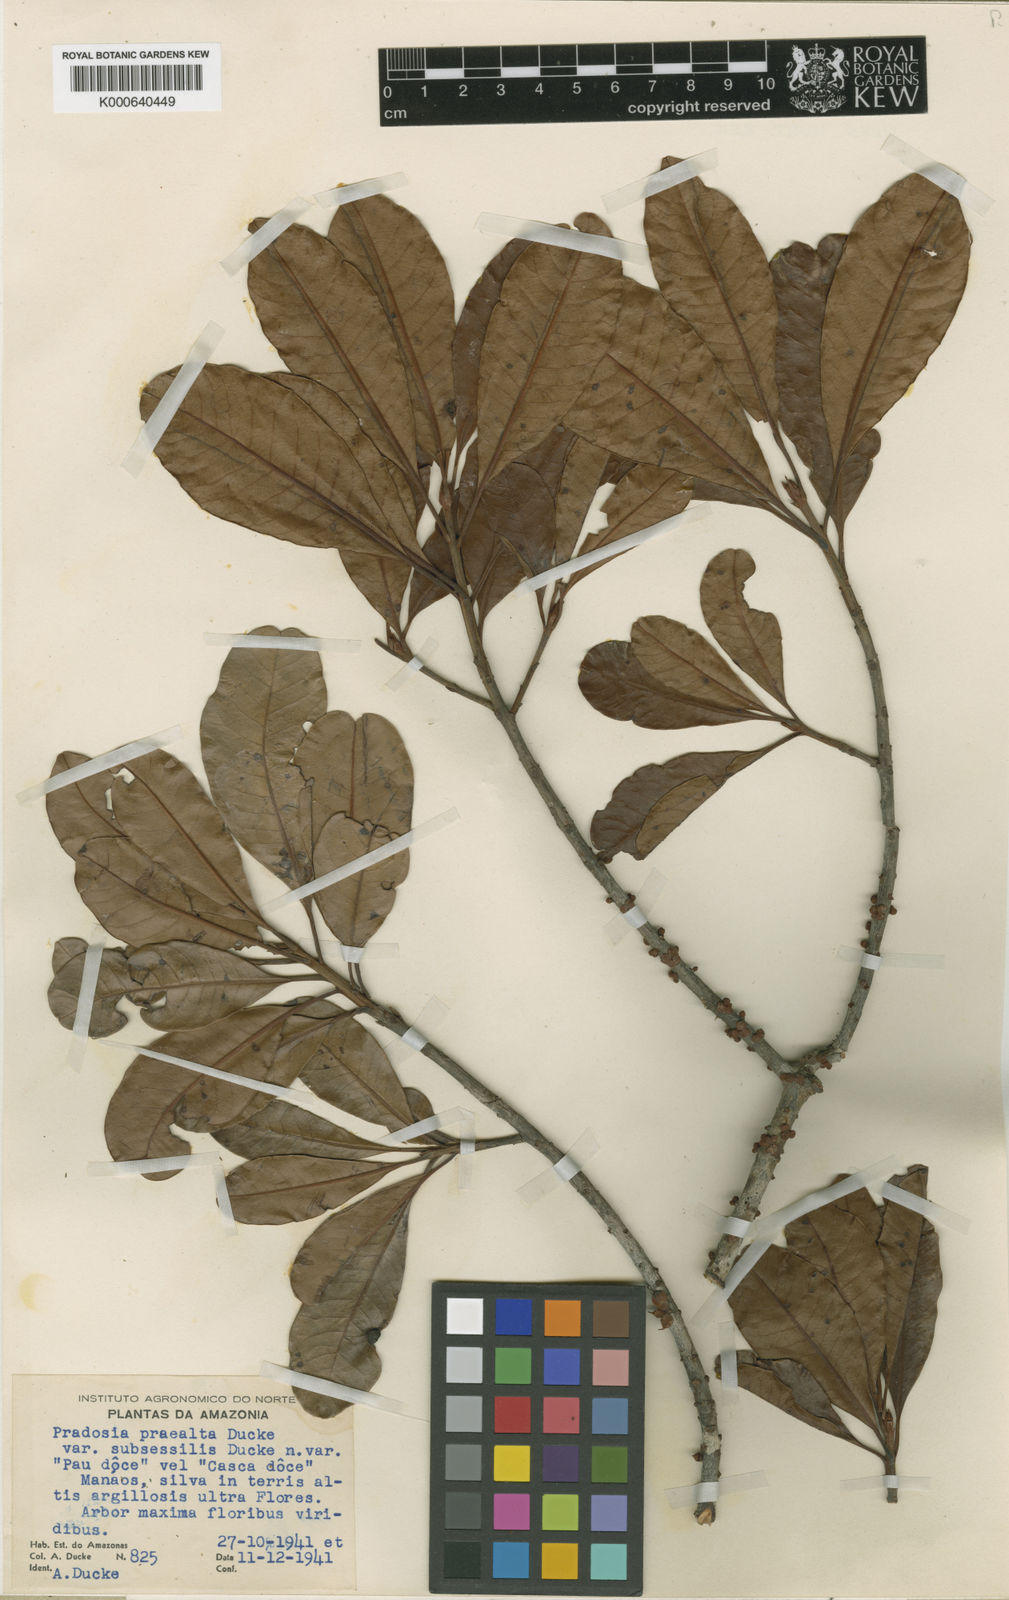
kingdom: Plantae
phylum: Tracheophyta
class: Magnoliopsida
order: Ericales
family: Sapotaceae
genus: Pradosia
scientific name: Pradosia cochlearia
